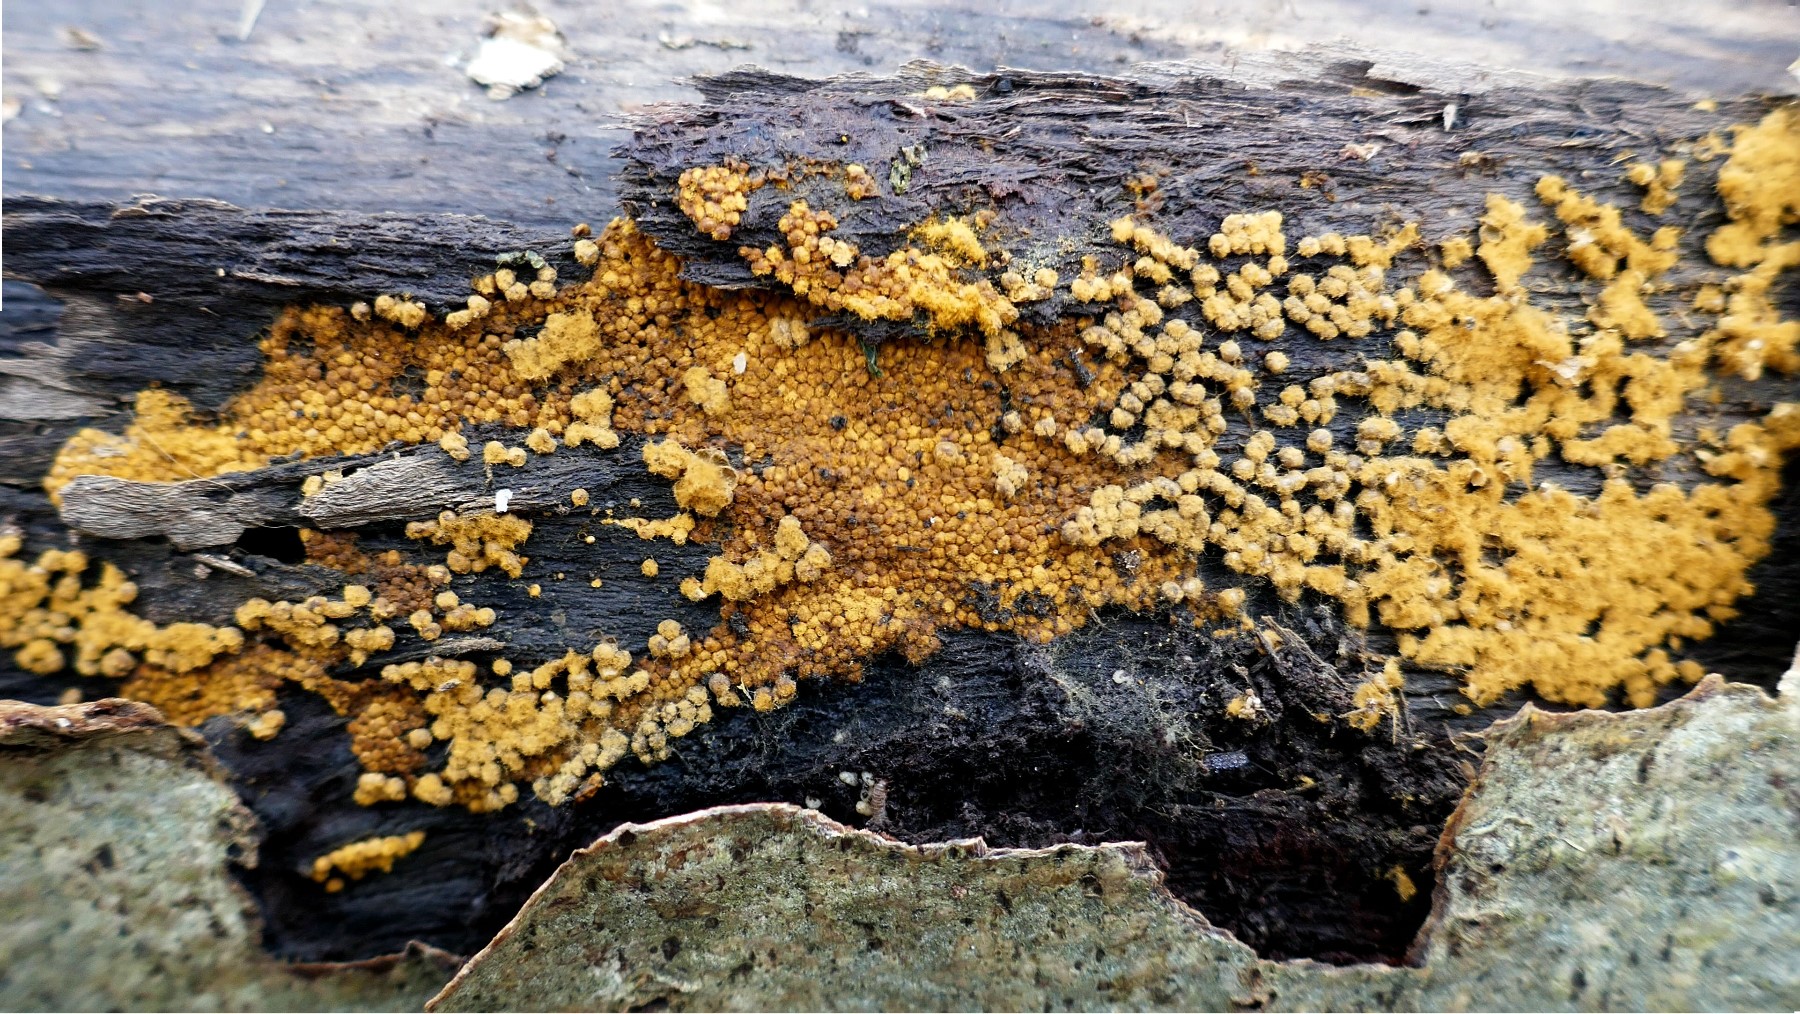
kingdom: Protozoa
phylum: Mycetozoa
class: Myxomycetes
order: Trichiales
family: Trichiaceae
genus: Trichia
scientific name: Trichia
